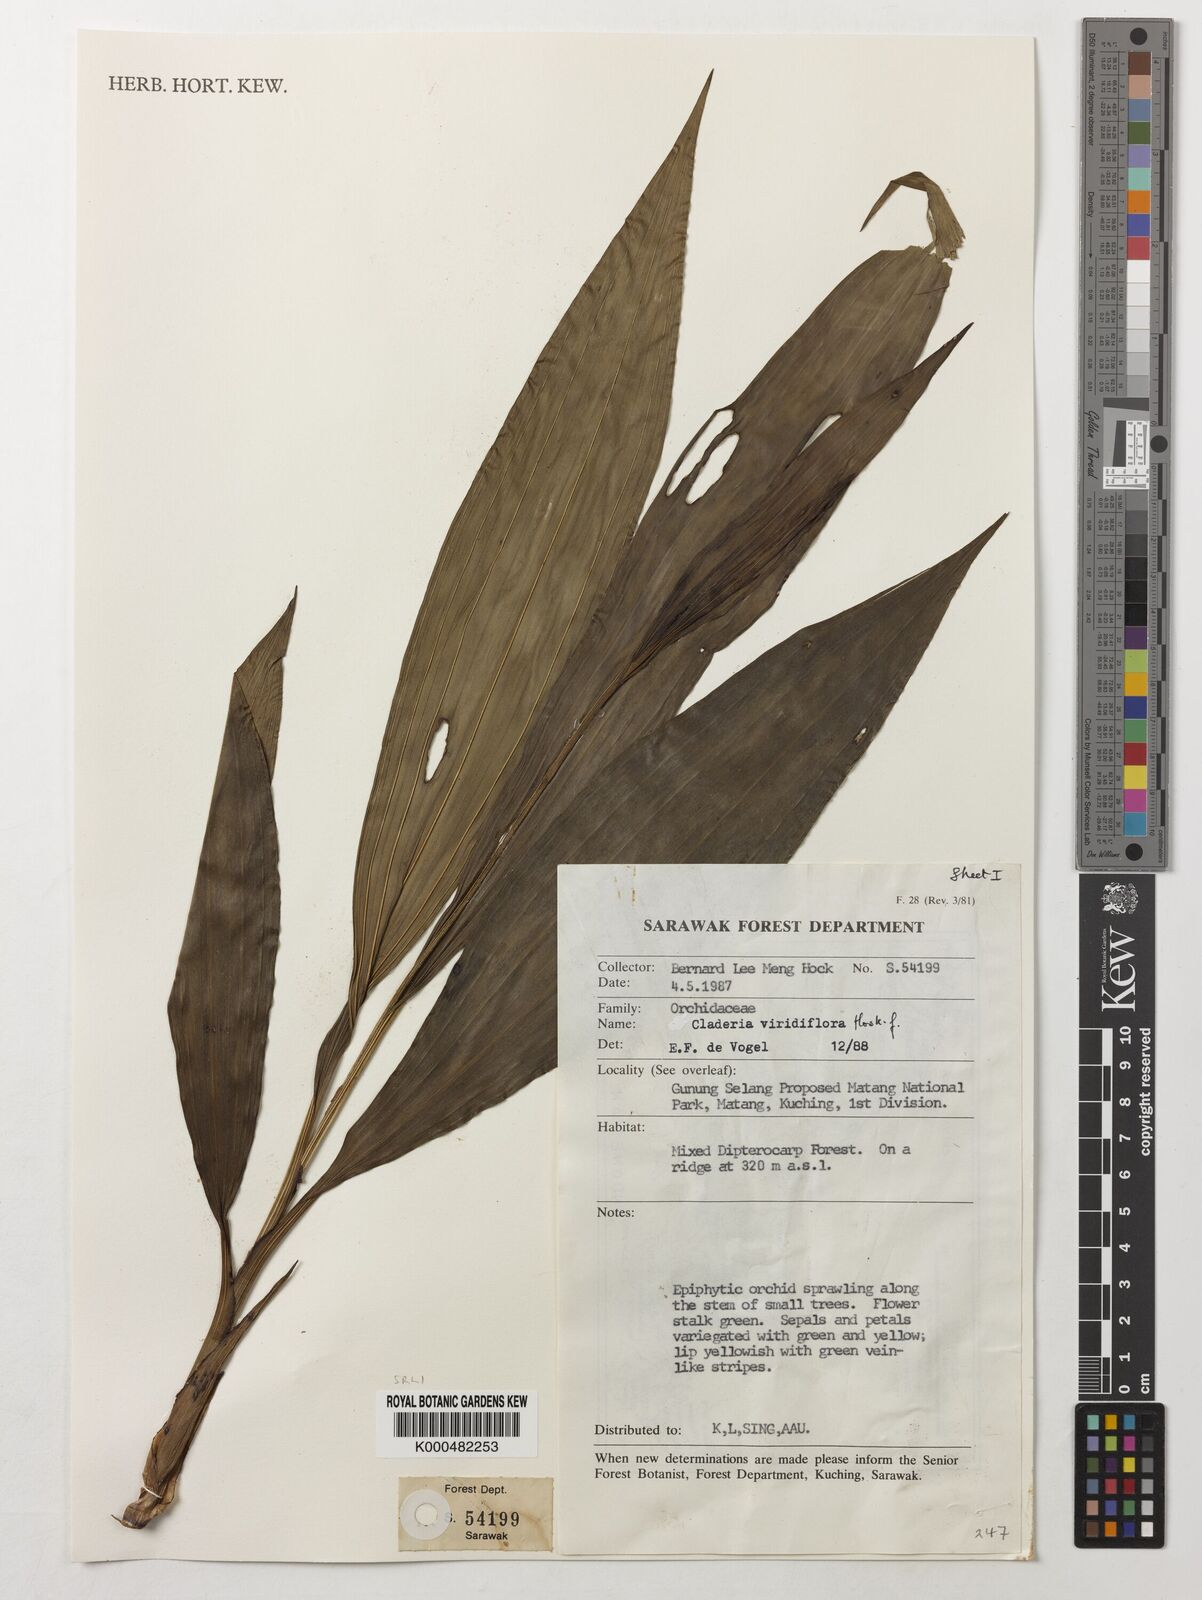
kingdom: Plantae
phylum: Tracheophyta
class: Liliopsida
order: Asparagales
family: Orchidaceae
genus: Claderia
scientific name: Claderia
